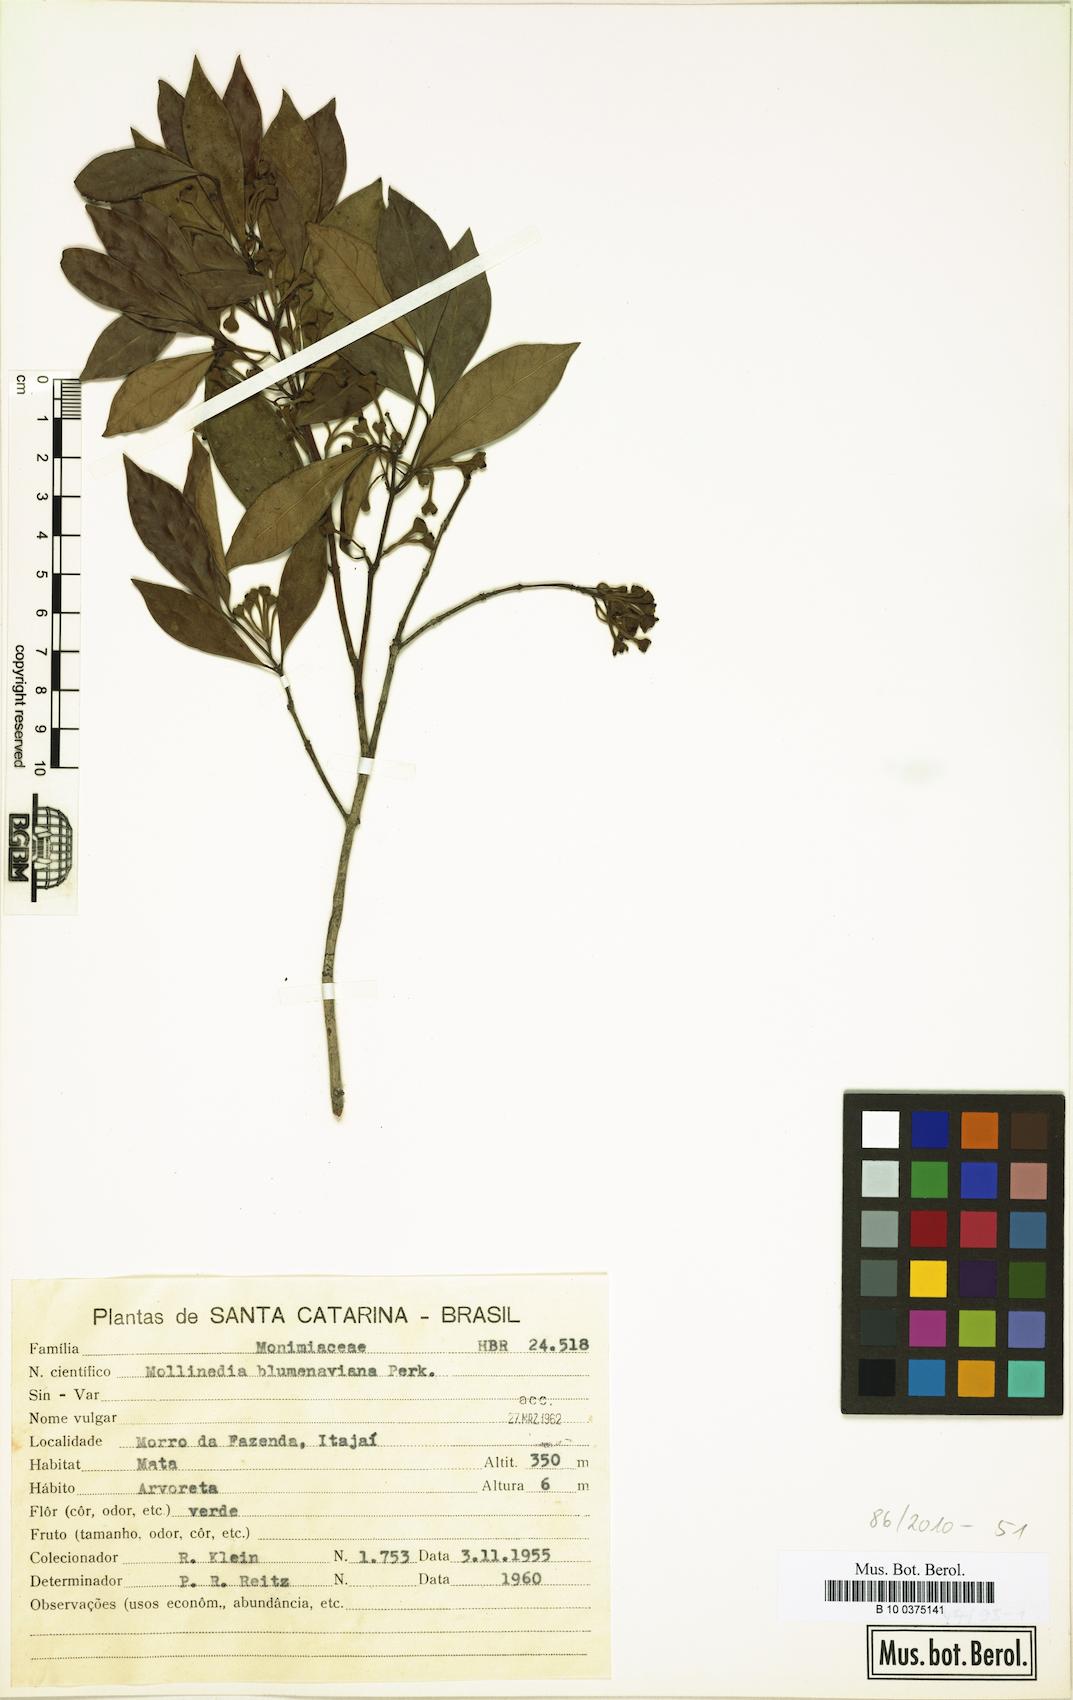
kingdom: Plantae
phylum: Tracheophyta
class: Magnoliopsida
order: Laurales
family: Monimiaceae
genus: Mollinedia
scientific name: Mollinedia clavigera
